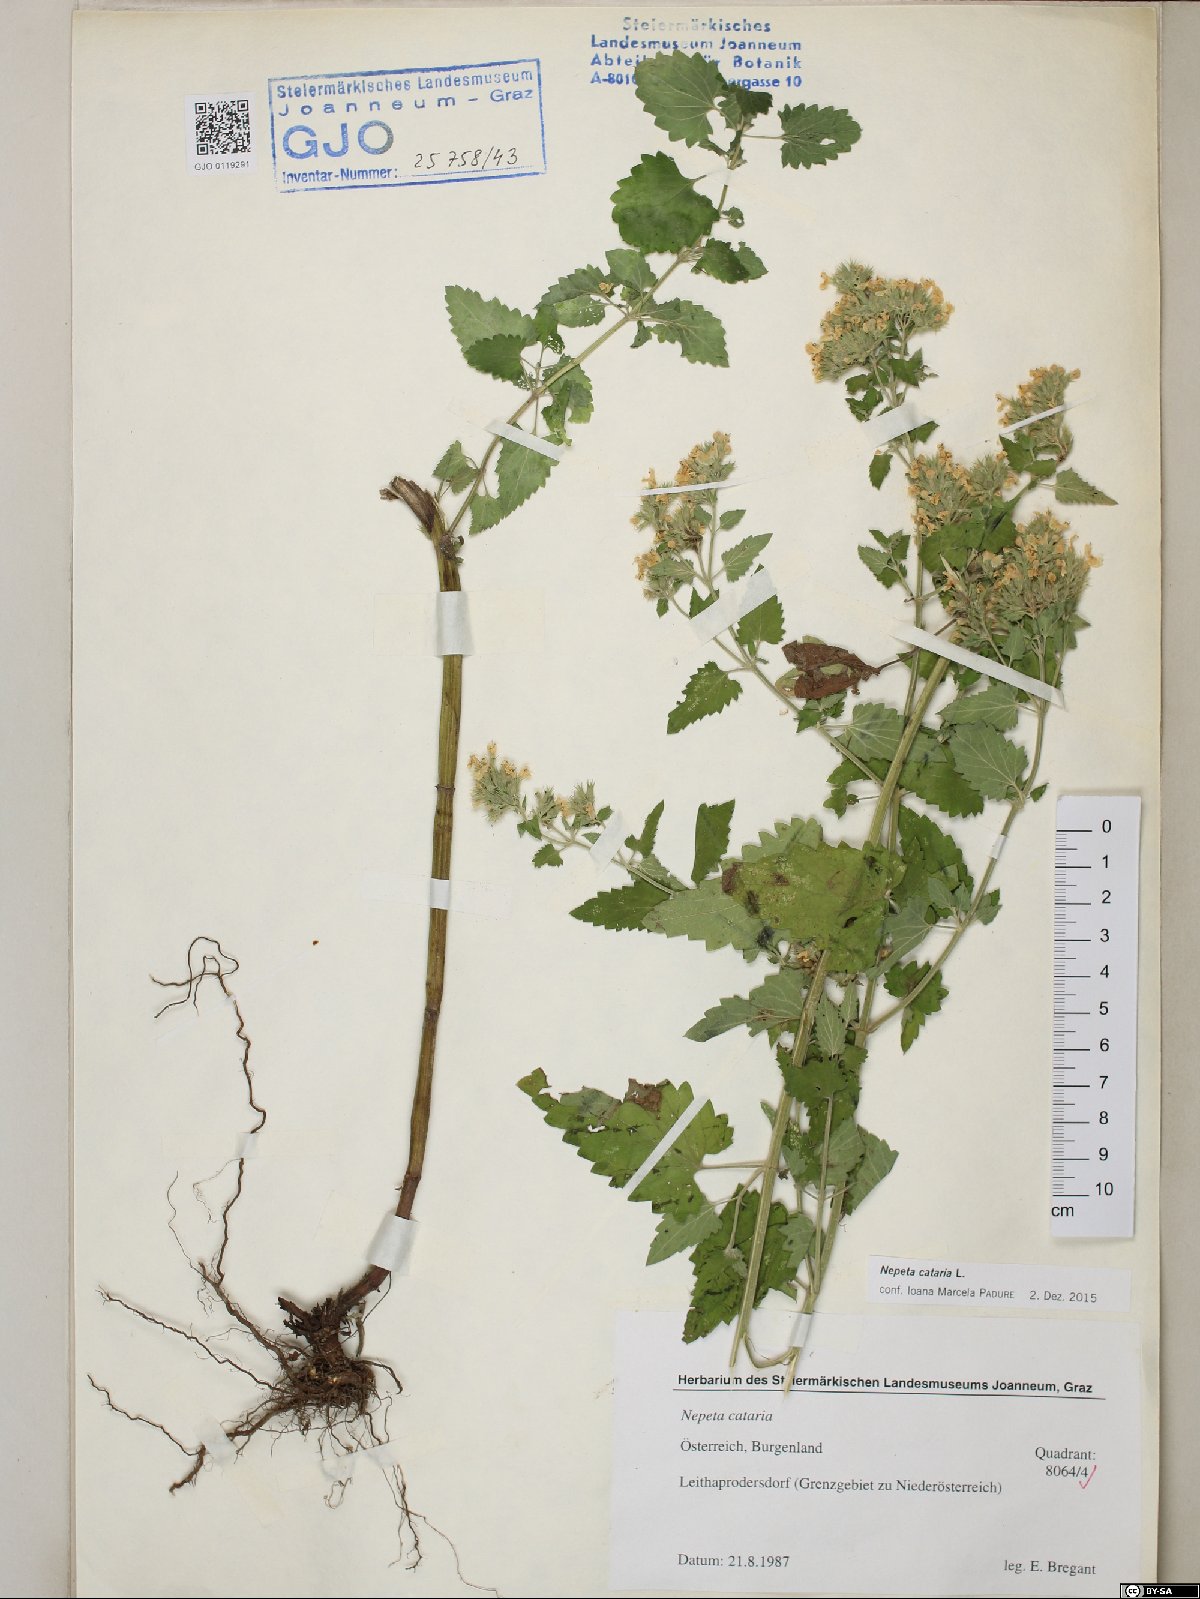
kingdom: Plantae
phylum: Tracheophyta
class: Magnoliopsida
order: Lamiales
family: Lamiaceae
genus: Nepeta
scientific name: Nepeta cataria
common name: Catnip
